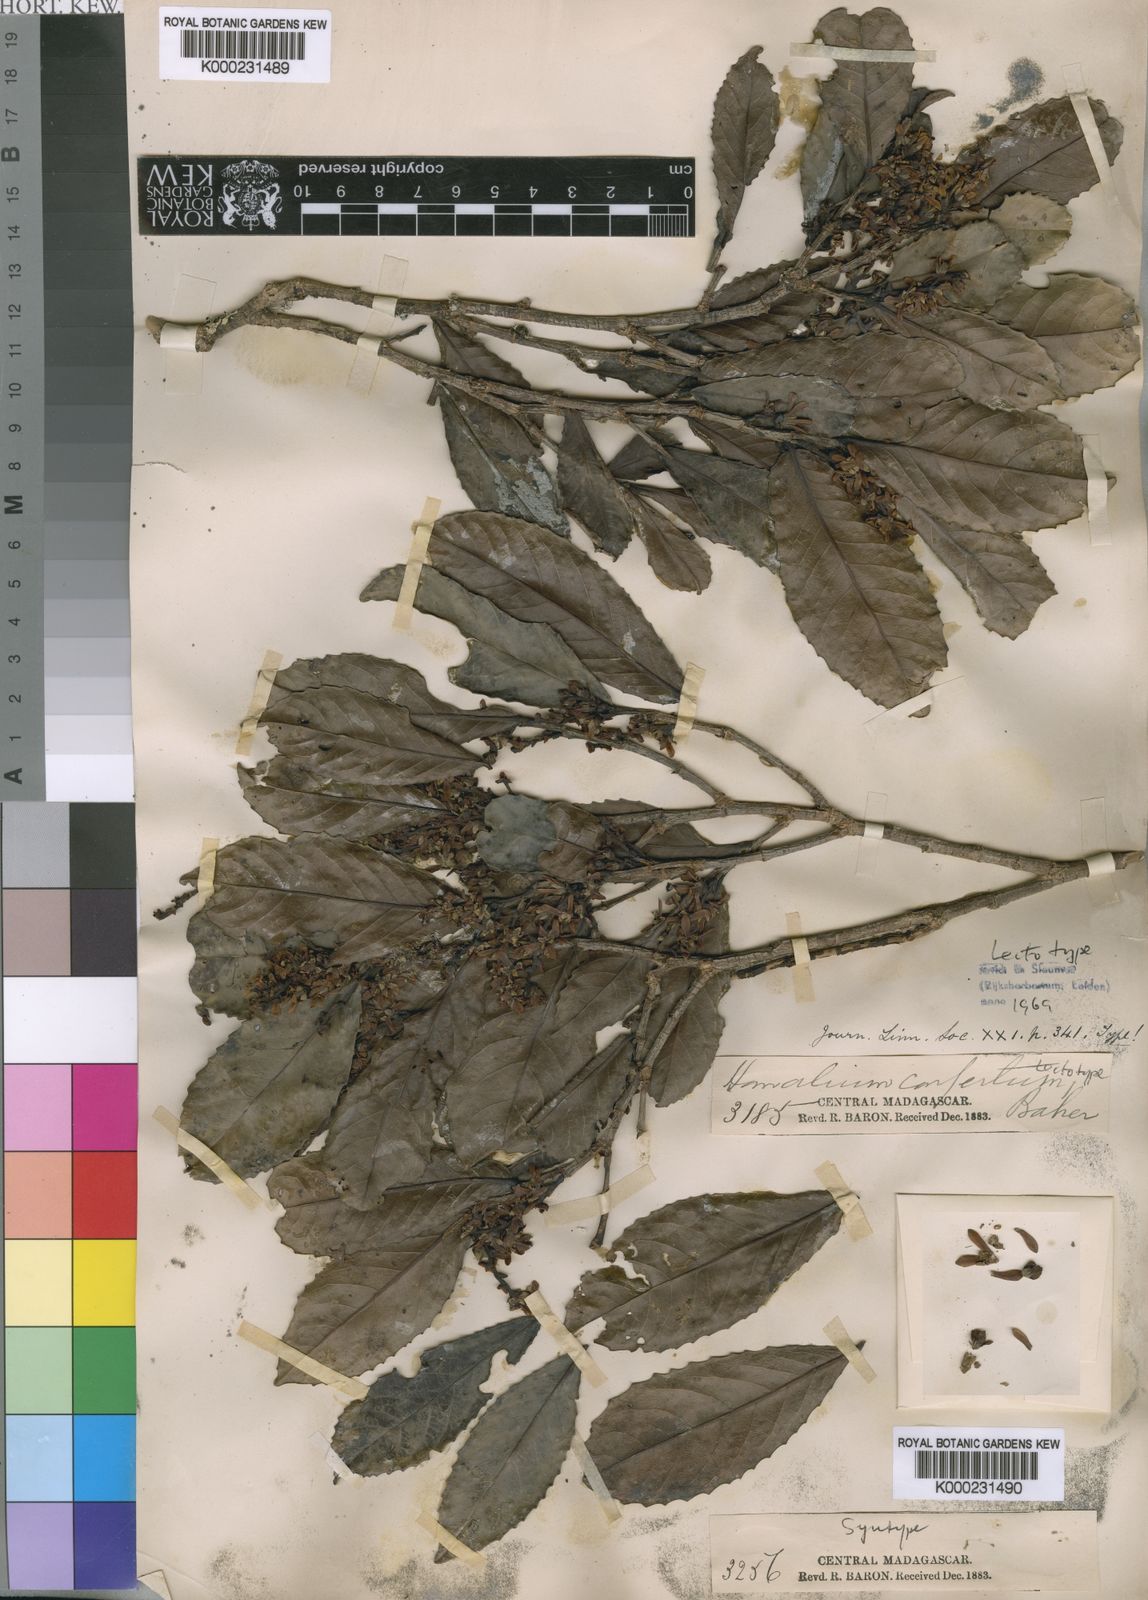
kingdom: Plantae
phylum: Tracheophyta
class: Magnoliopsida
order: Malpighiales
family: Salicaceae
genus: Homalium
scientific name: Homalium
